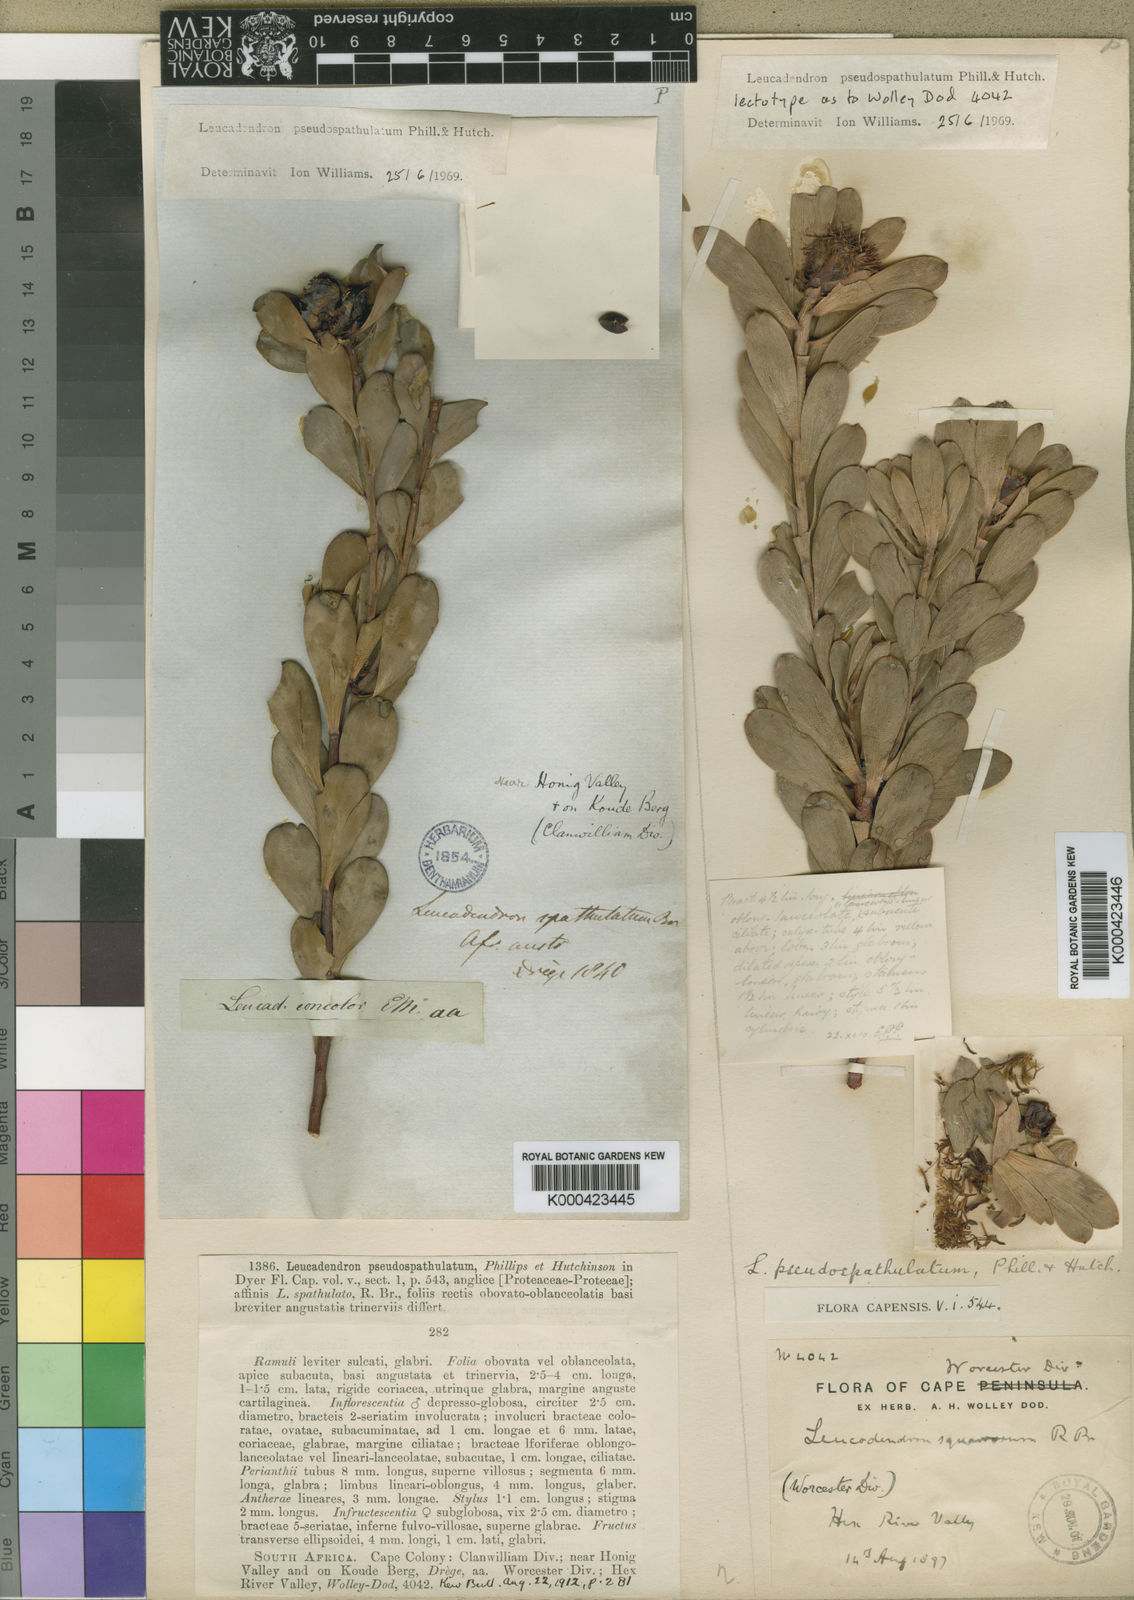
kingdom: Plantae
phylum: Tracheophyta
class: Magnoliopsida
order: Proteales
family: Proteaceae
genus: Leucadendron
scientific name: Leucadendron loranthifolium
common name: Green-flower sunbush
